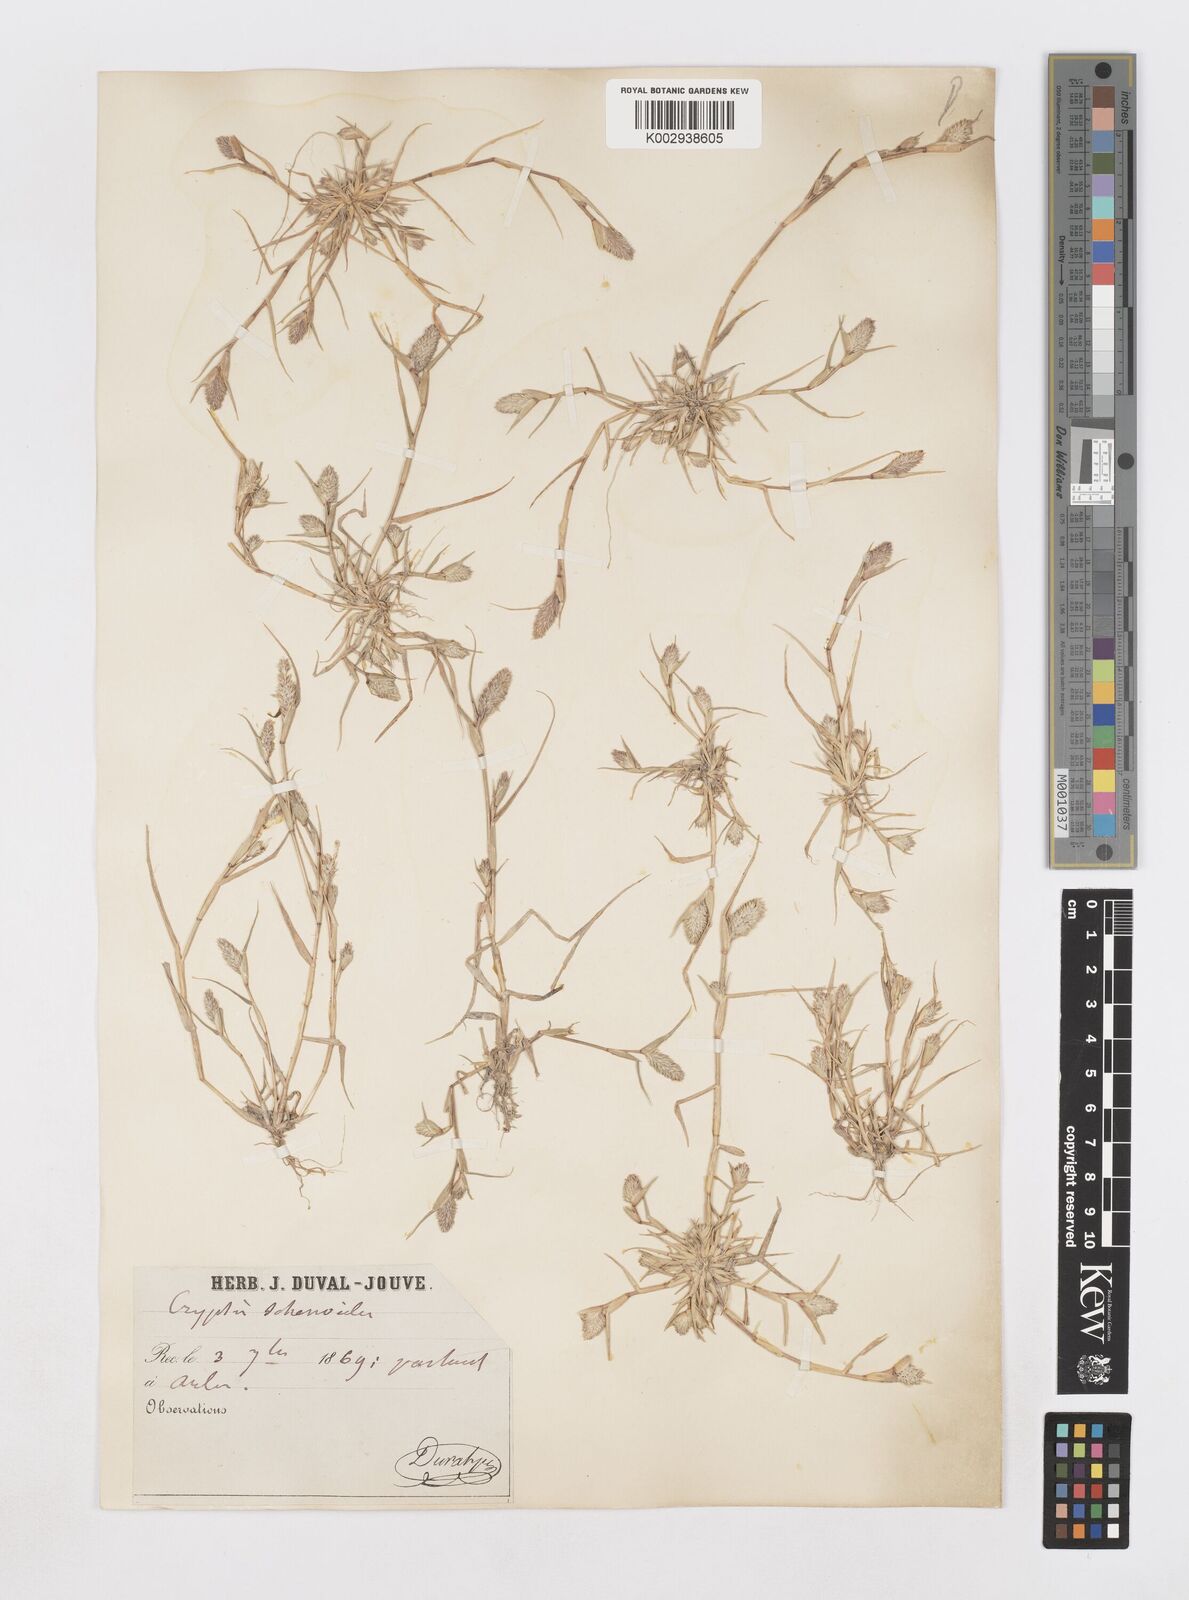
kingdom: Plantae
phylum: Tracheophyta
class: Liliopsida
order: Poales
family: Poaceae
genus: Sporobolus
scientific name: Sporobolus schoenoides
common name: Rush-like timothy
